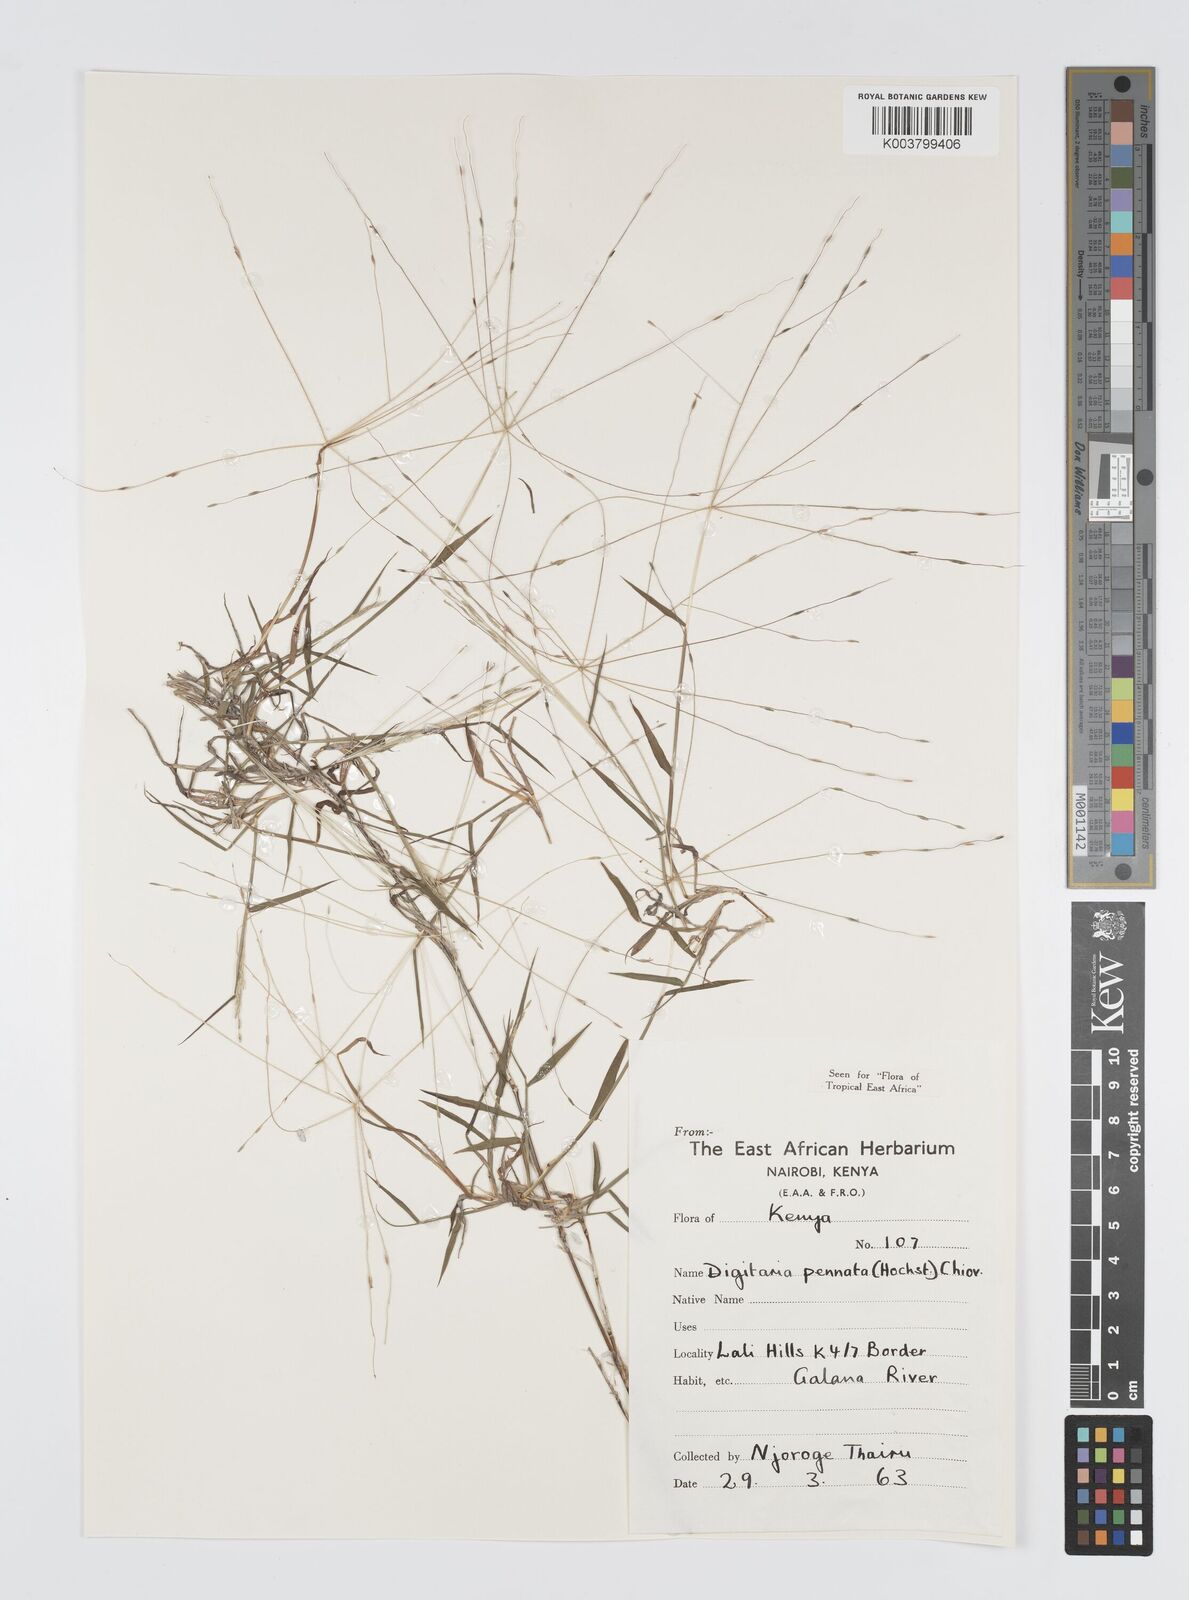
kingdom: Plantae
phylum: Tracheophyta
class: Liliopsida
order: Poales
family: Poaceae
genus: Digitaria
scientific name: Digitaria pennata
